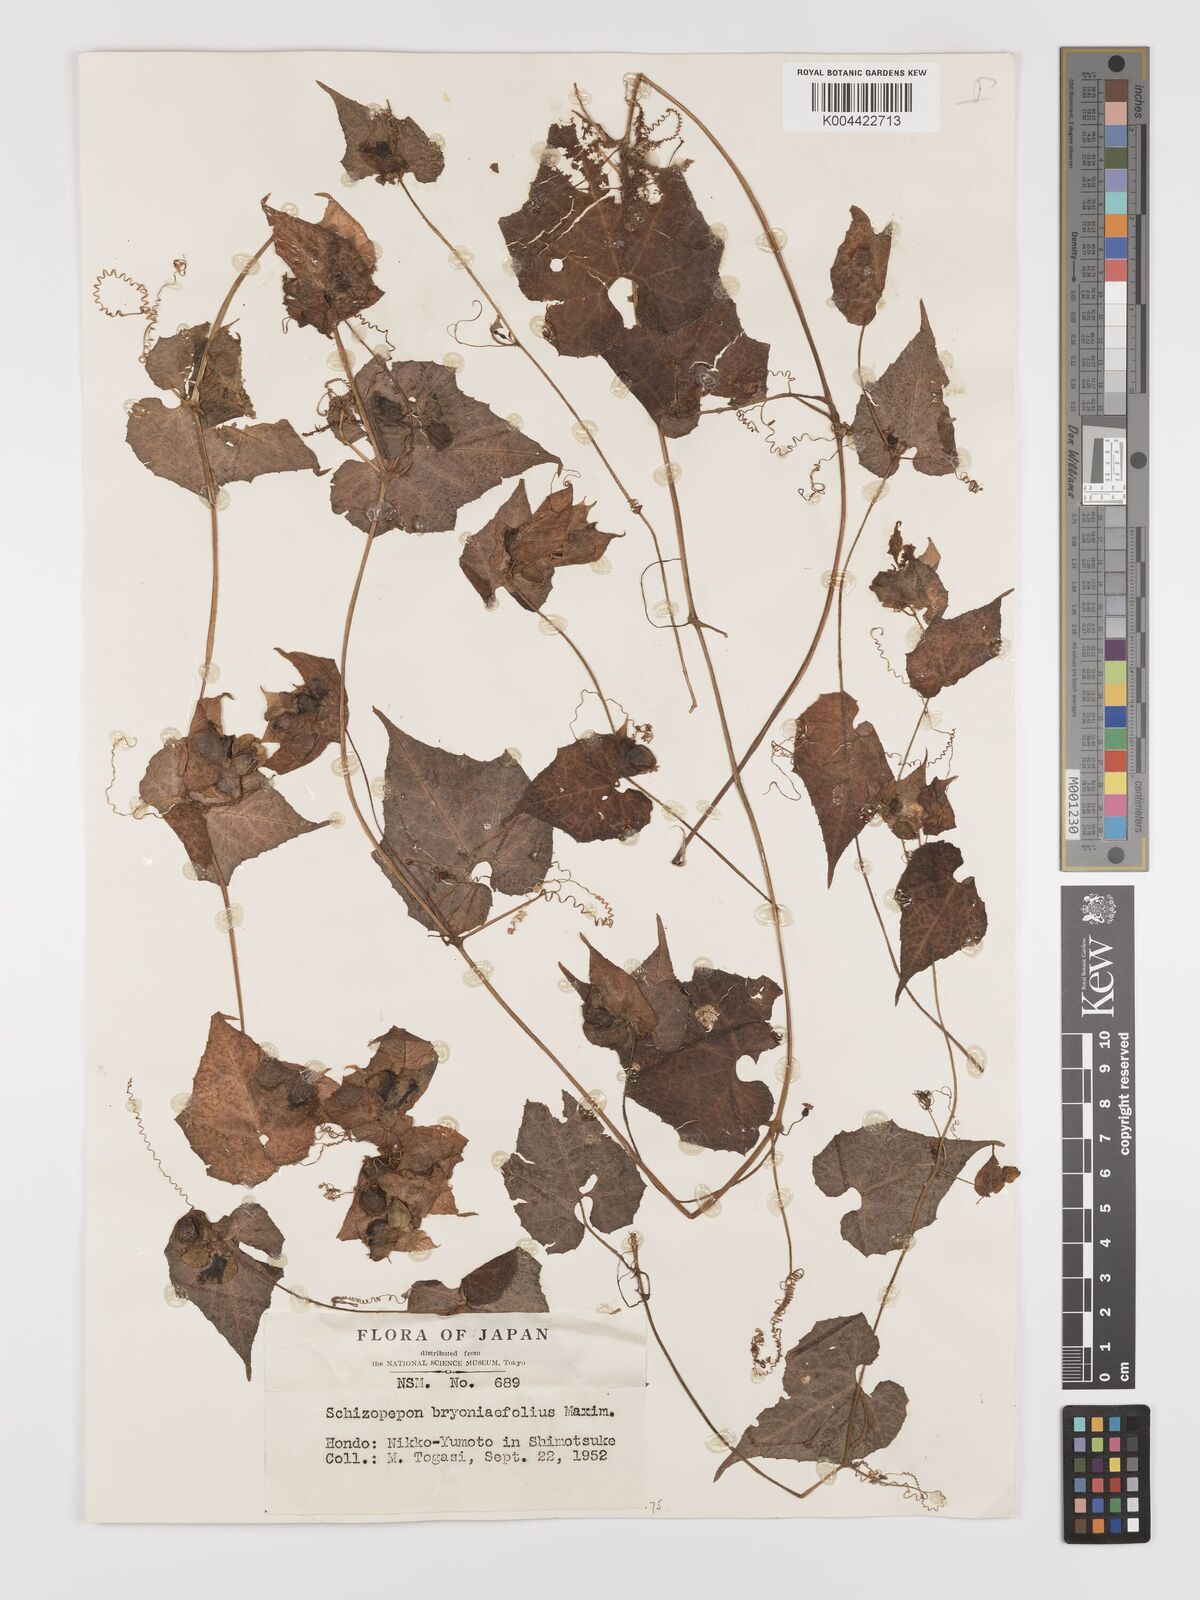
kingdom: Plantae
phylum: Tracheophyta
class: Magnoliopsida
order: Cucurbitales
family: Cucurbitaceae
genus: Schizopepon
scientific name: Schizopepon bryoniifolius
